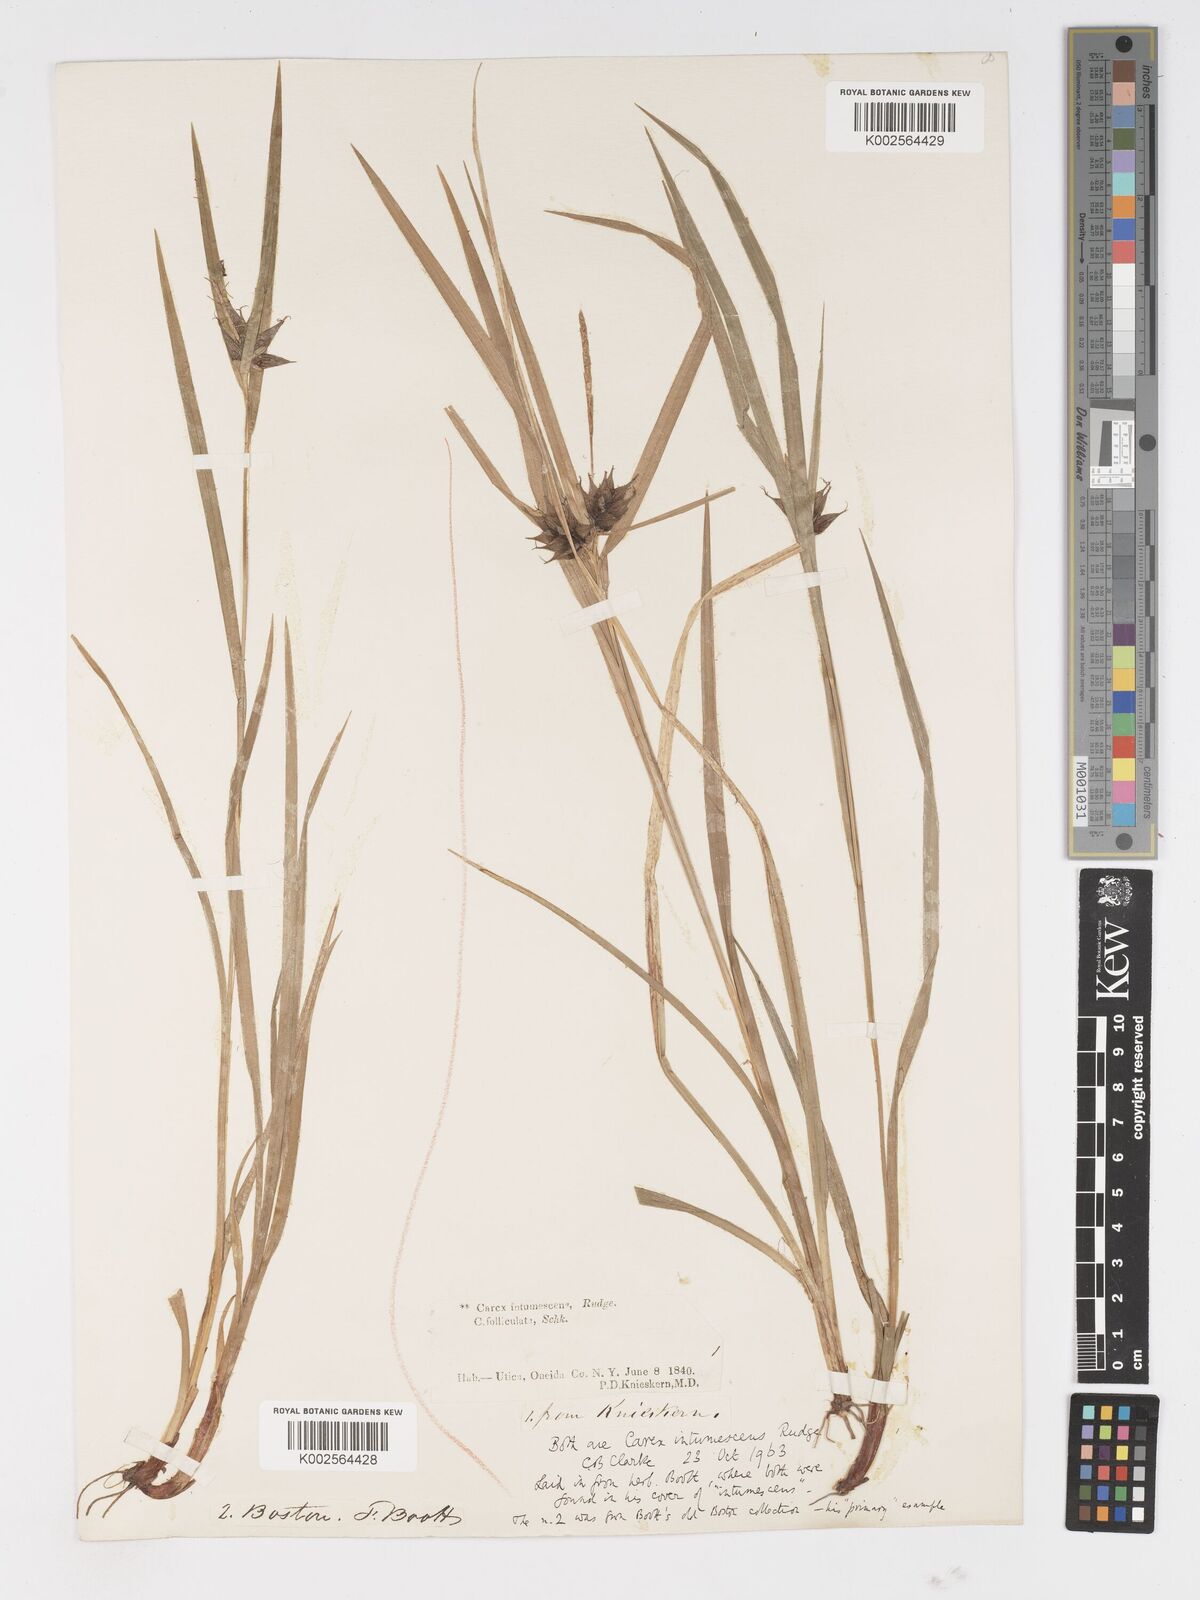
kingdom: Plantae
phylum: Tracheophyta
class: Liliopsida
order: Poales
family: Cyperaceae
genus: Carex
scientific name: Carex intumescens
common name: Greater bladder sedge
